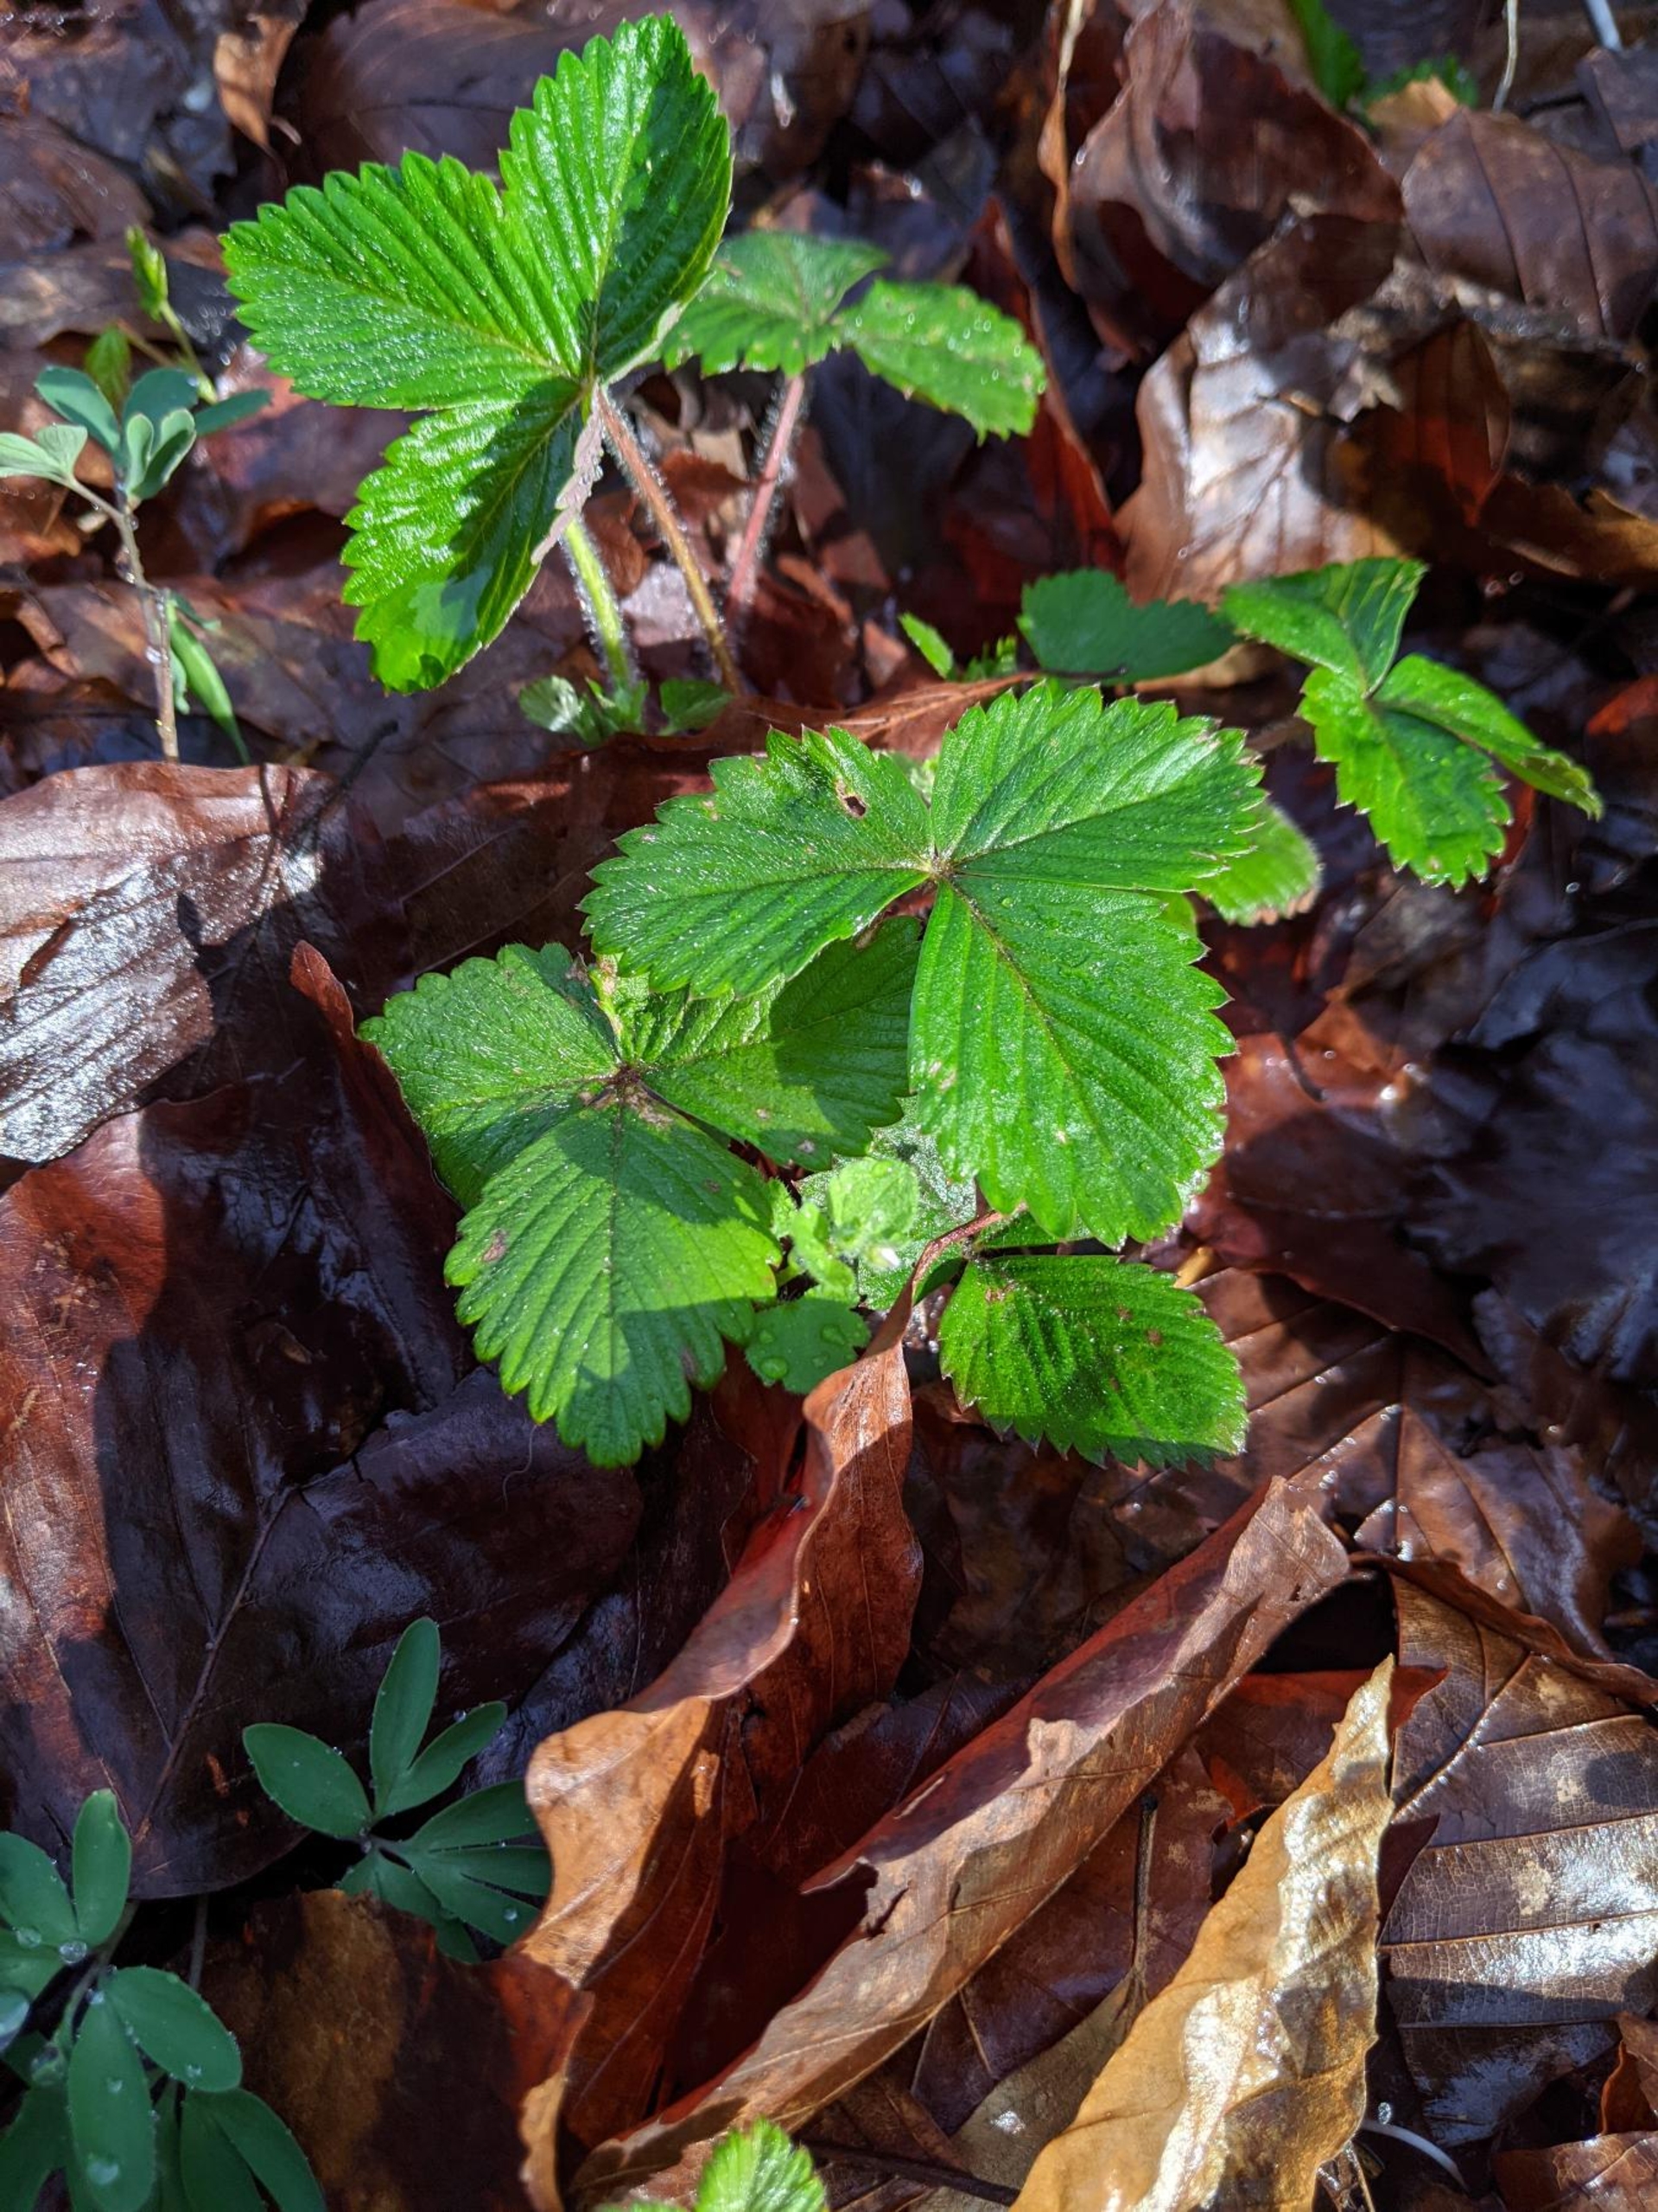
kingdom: Plantae
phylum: Tracheophyta
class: Magnoliopsida
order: Rosales
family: Rosaceae
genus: Fragaria
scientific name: Fragaria vesca
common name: Skov-jordbær
